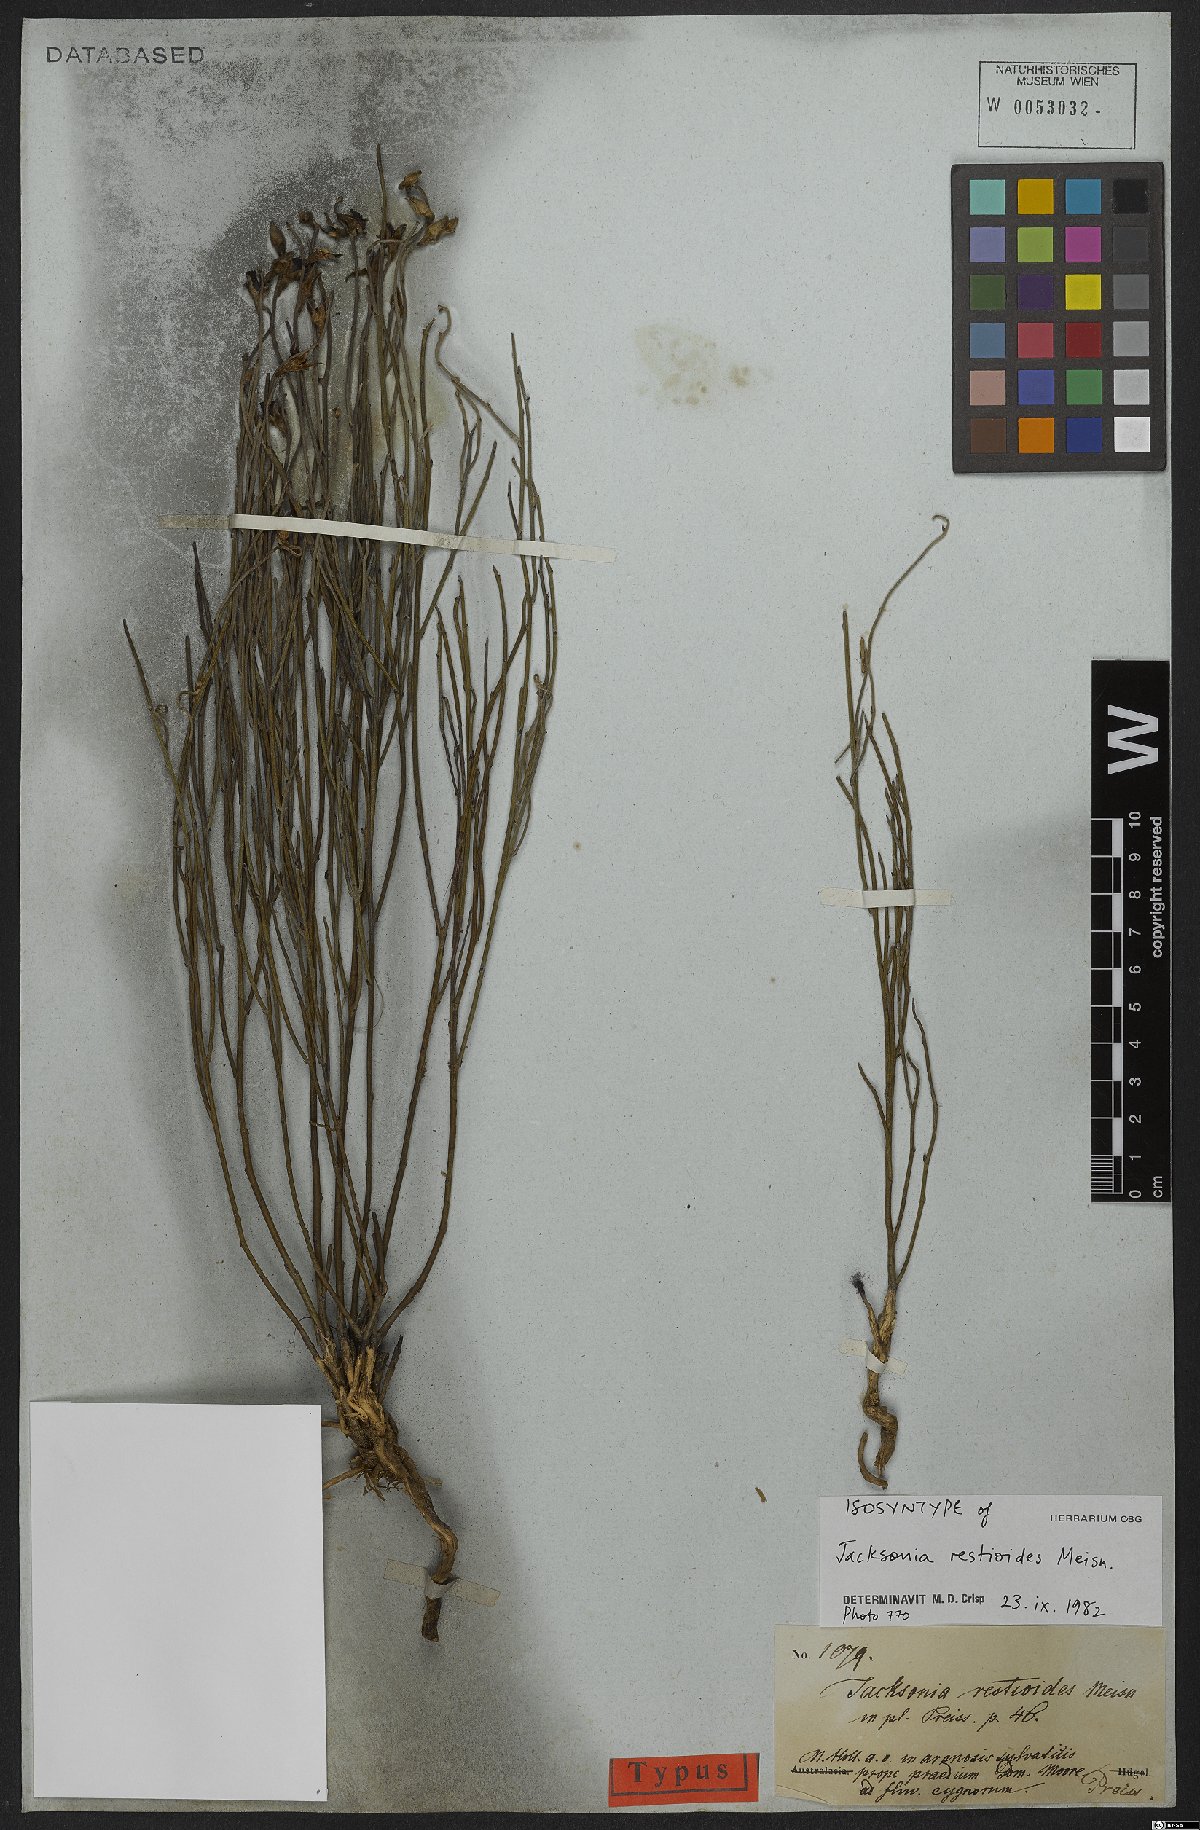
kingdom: Plantae
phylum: Tracheophyta
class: Magnoliopsida
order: Fabales
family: Fabaceae
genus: Jacksonia
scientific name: Jacksonia restioides
